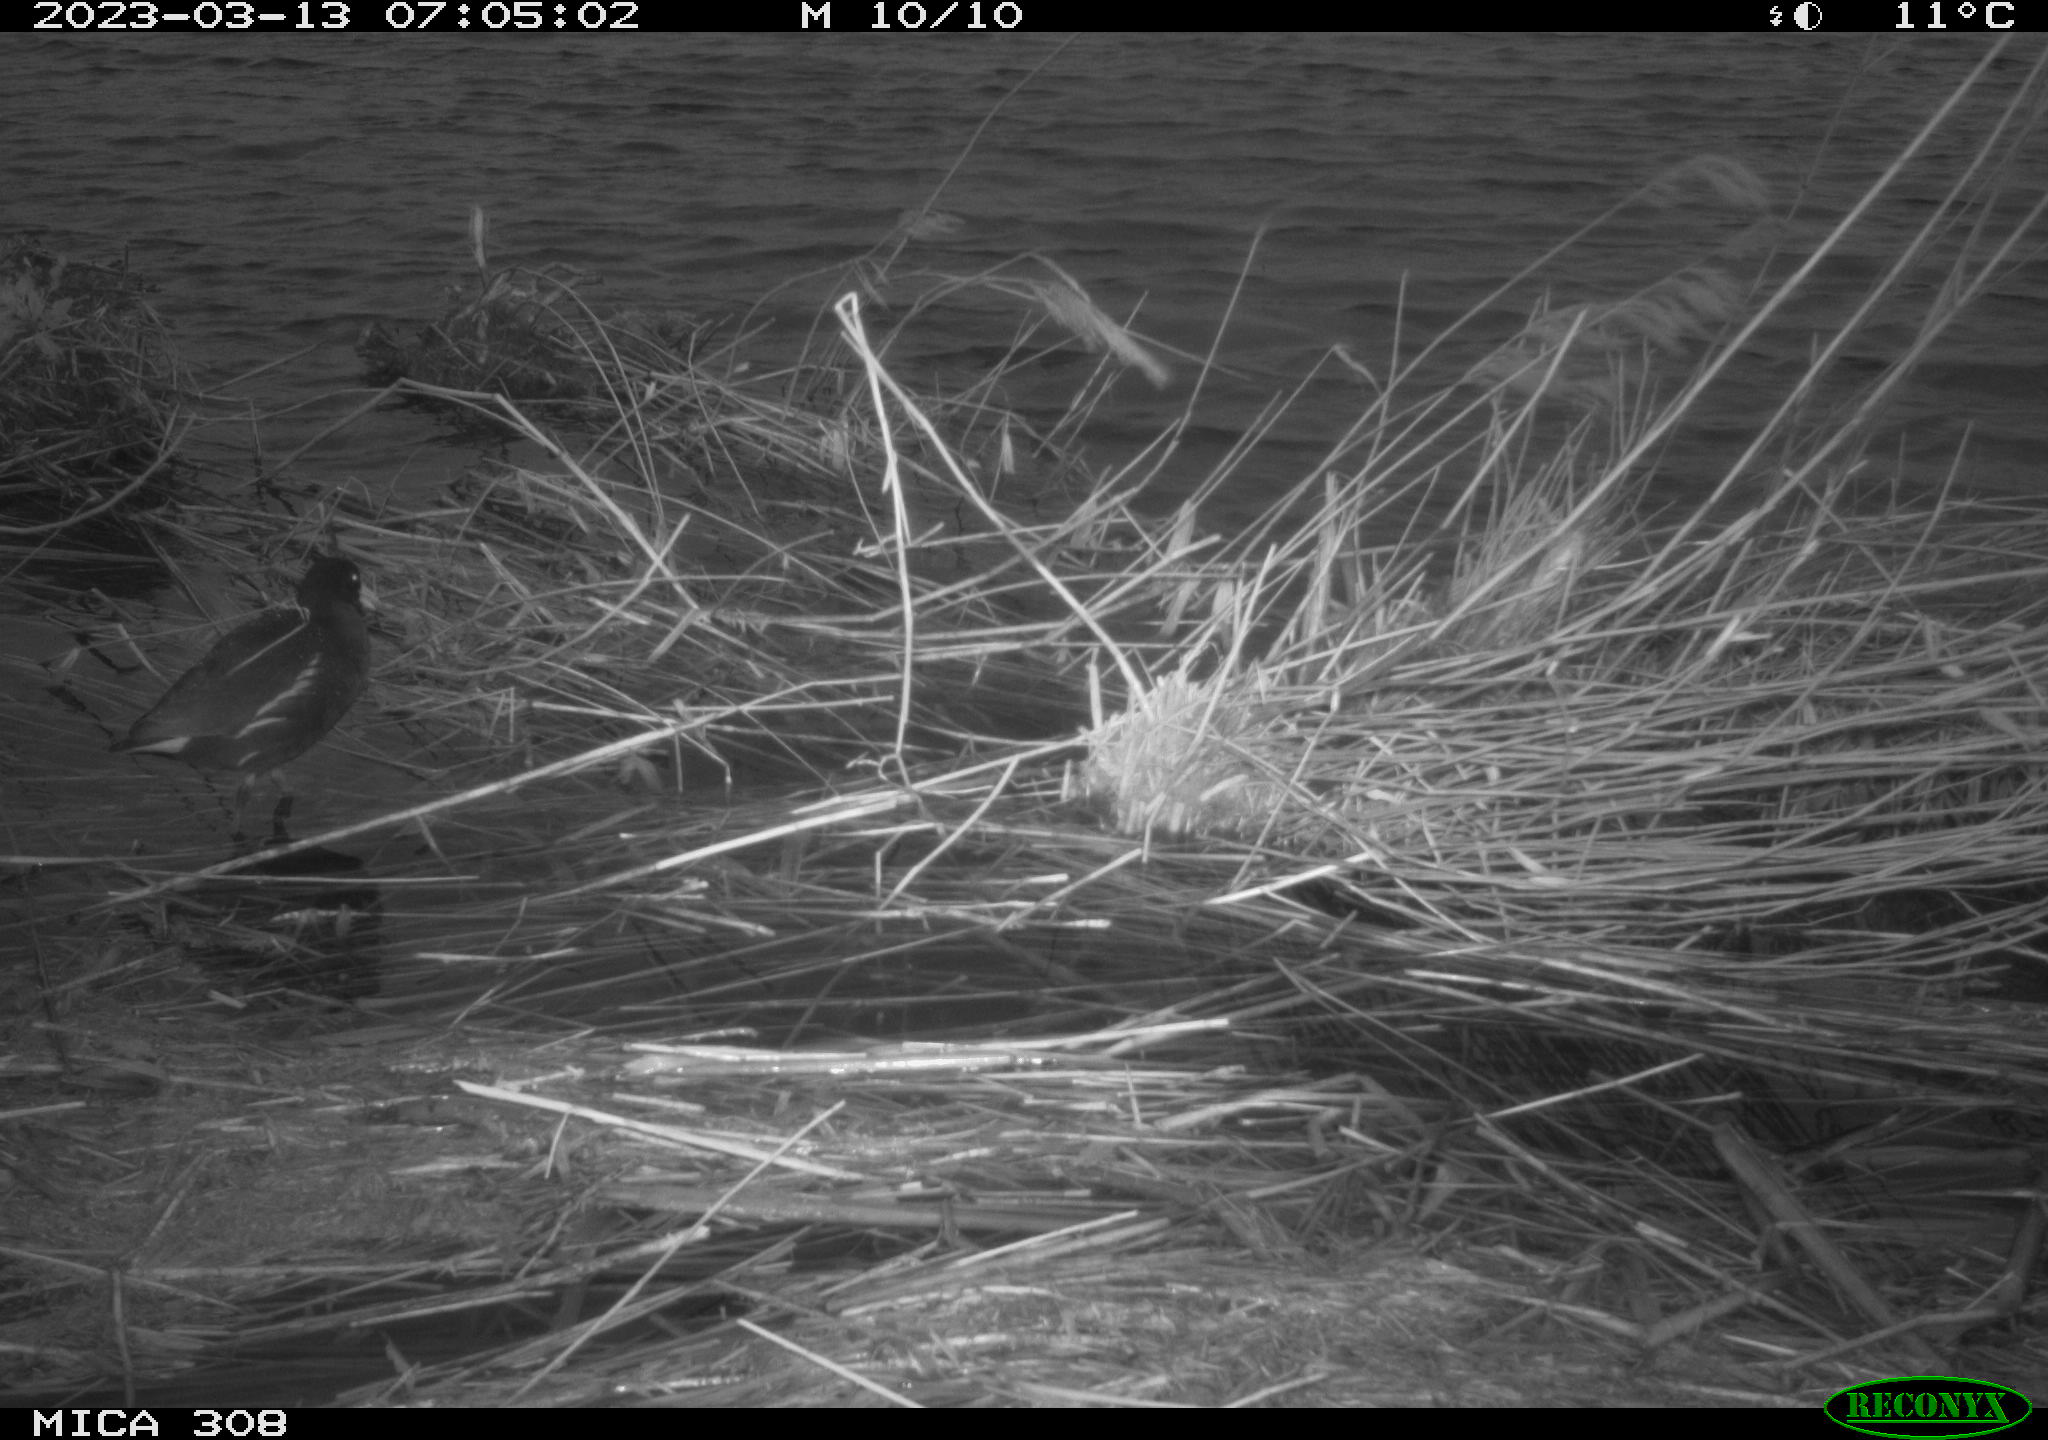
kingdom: Animalia
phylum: Chordata
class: Aves
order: Anseriformes
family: Anatidae
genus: Anas
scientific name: Anas
